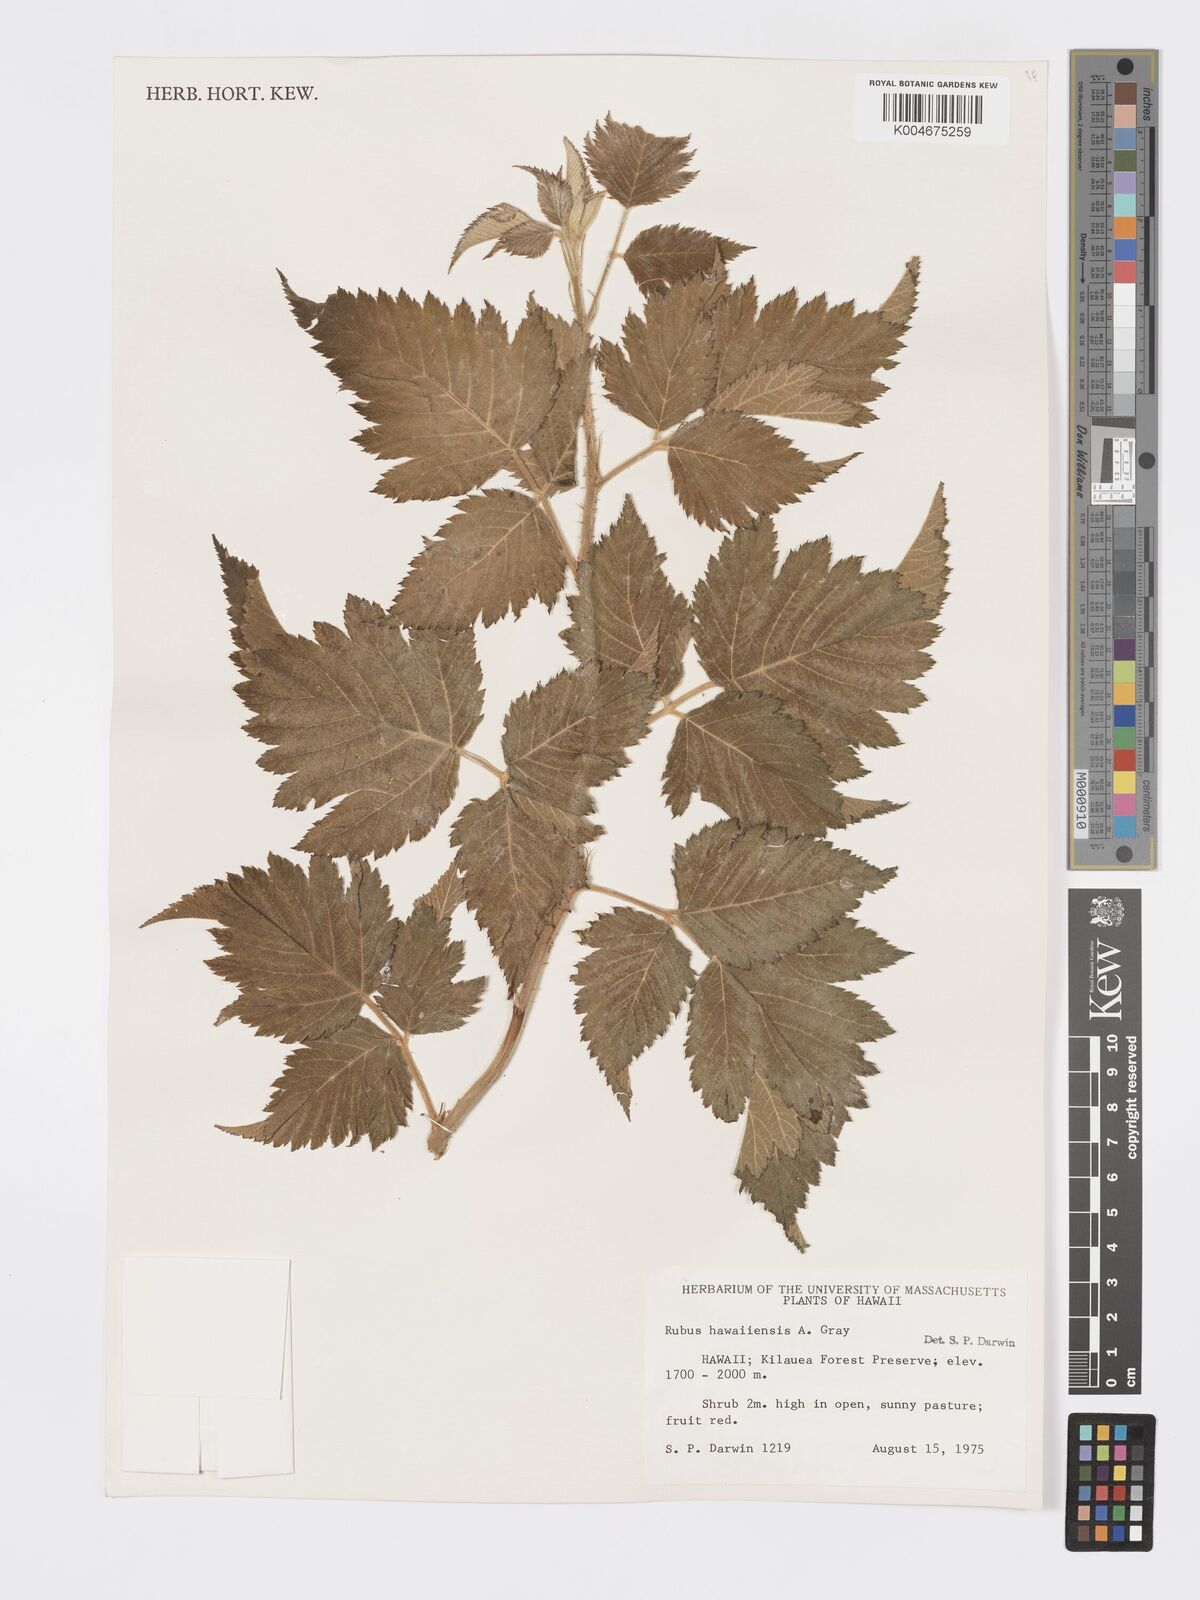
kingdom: Plantae
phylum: Tracheophyta
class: Magnoliopsida
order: Rosales
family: Rosaceae
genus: Rubus
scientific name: Rubus hawaiensis
